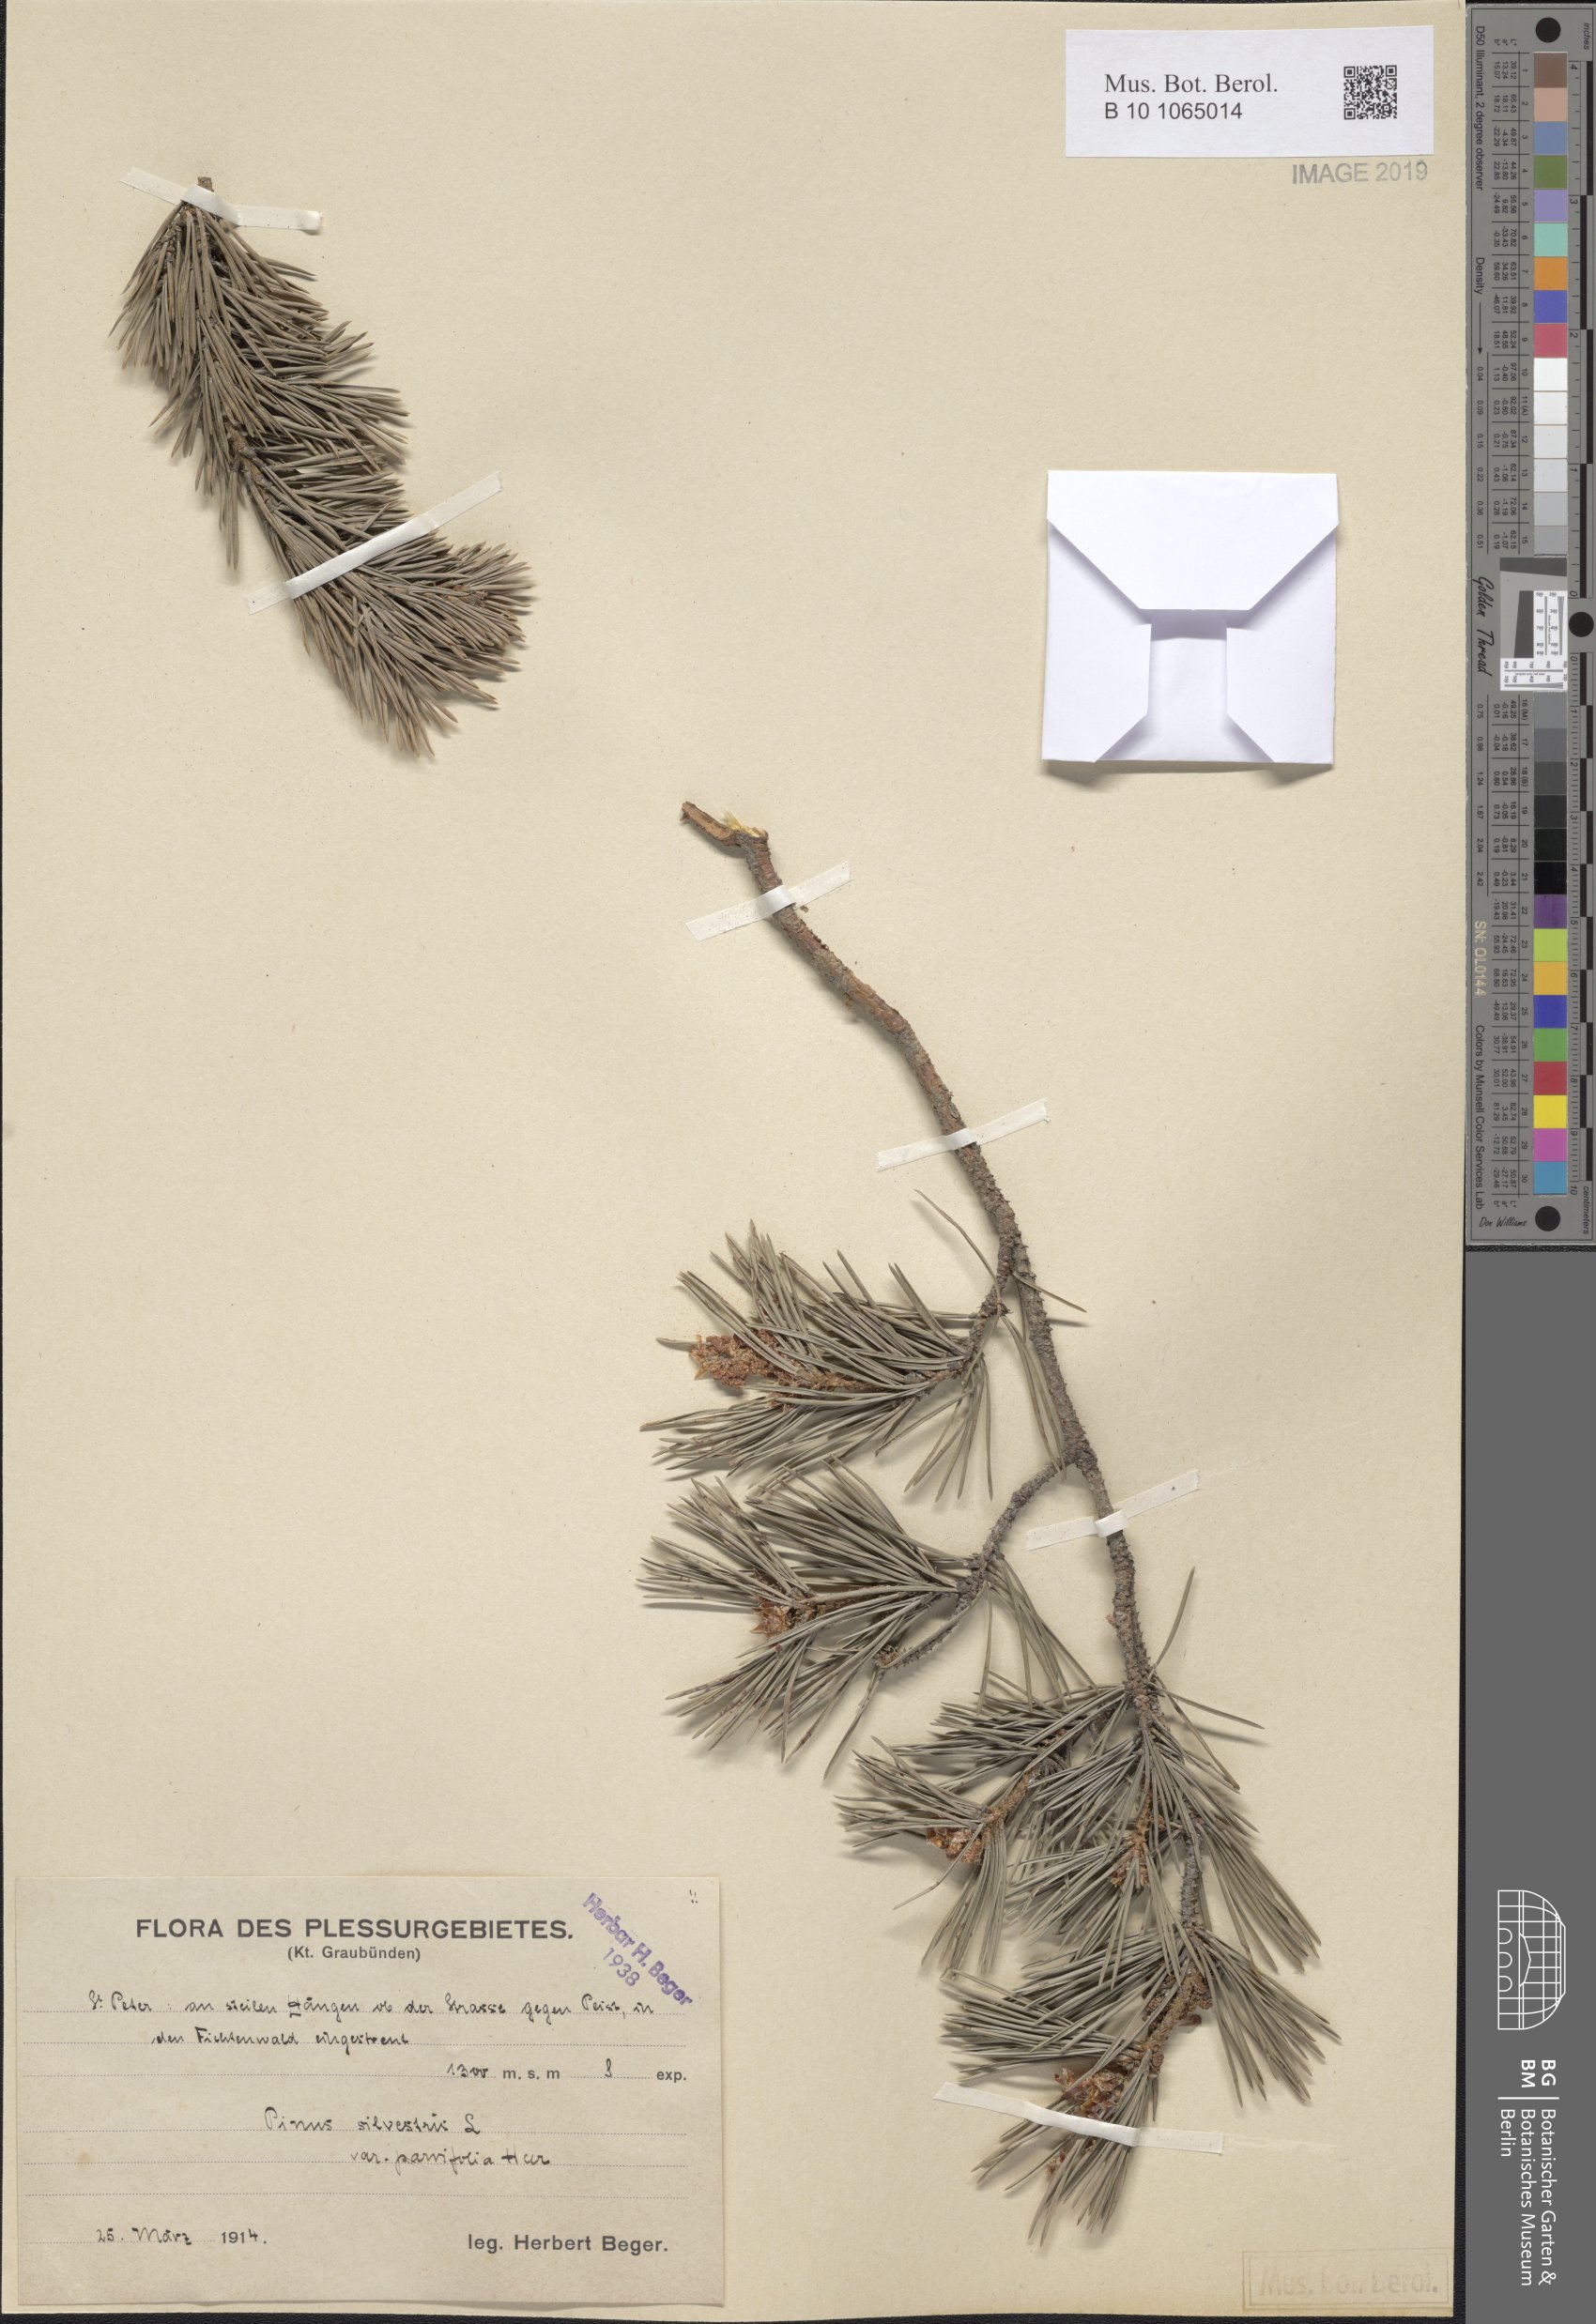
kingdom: Plantae
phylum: Tracheophyta
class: Pinopsida
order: Pinales
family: Pinaceae
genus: Pinus
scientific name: Pinus sylvestris
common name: Scots pine
